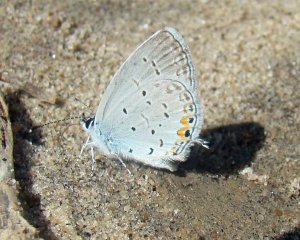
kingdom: Animalia
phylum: Arthropoda
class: Insecta
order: Lepidoptera
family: Lycaenidae
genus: Elkalyce
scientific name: Elkalyce comyntas
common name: Eastern Tailed-Blue
